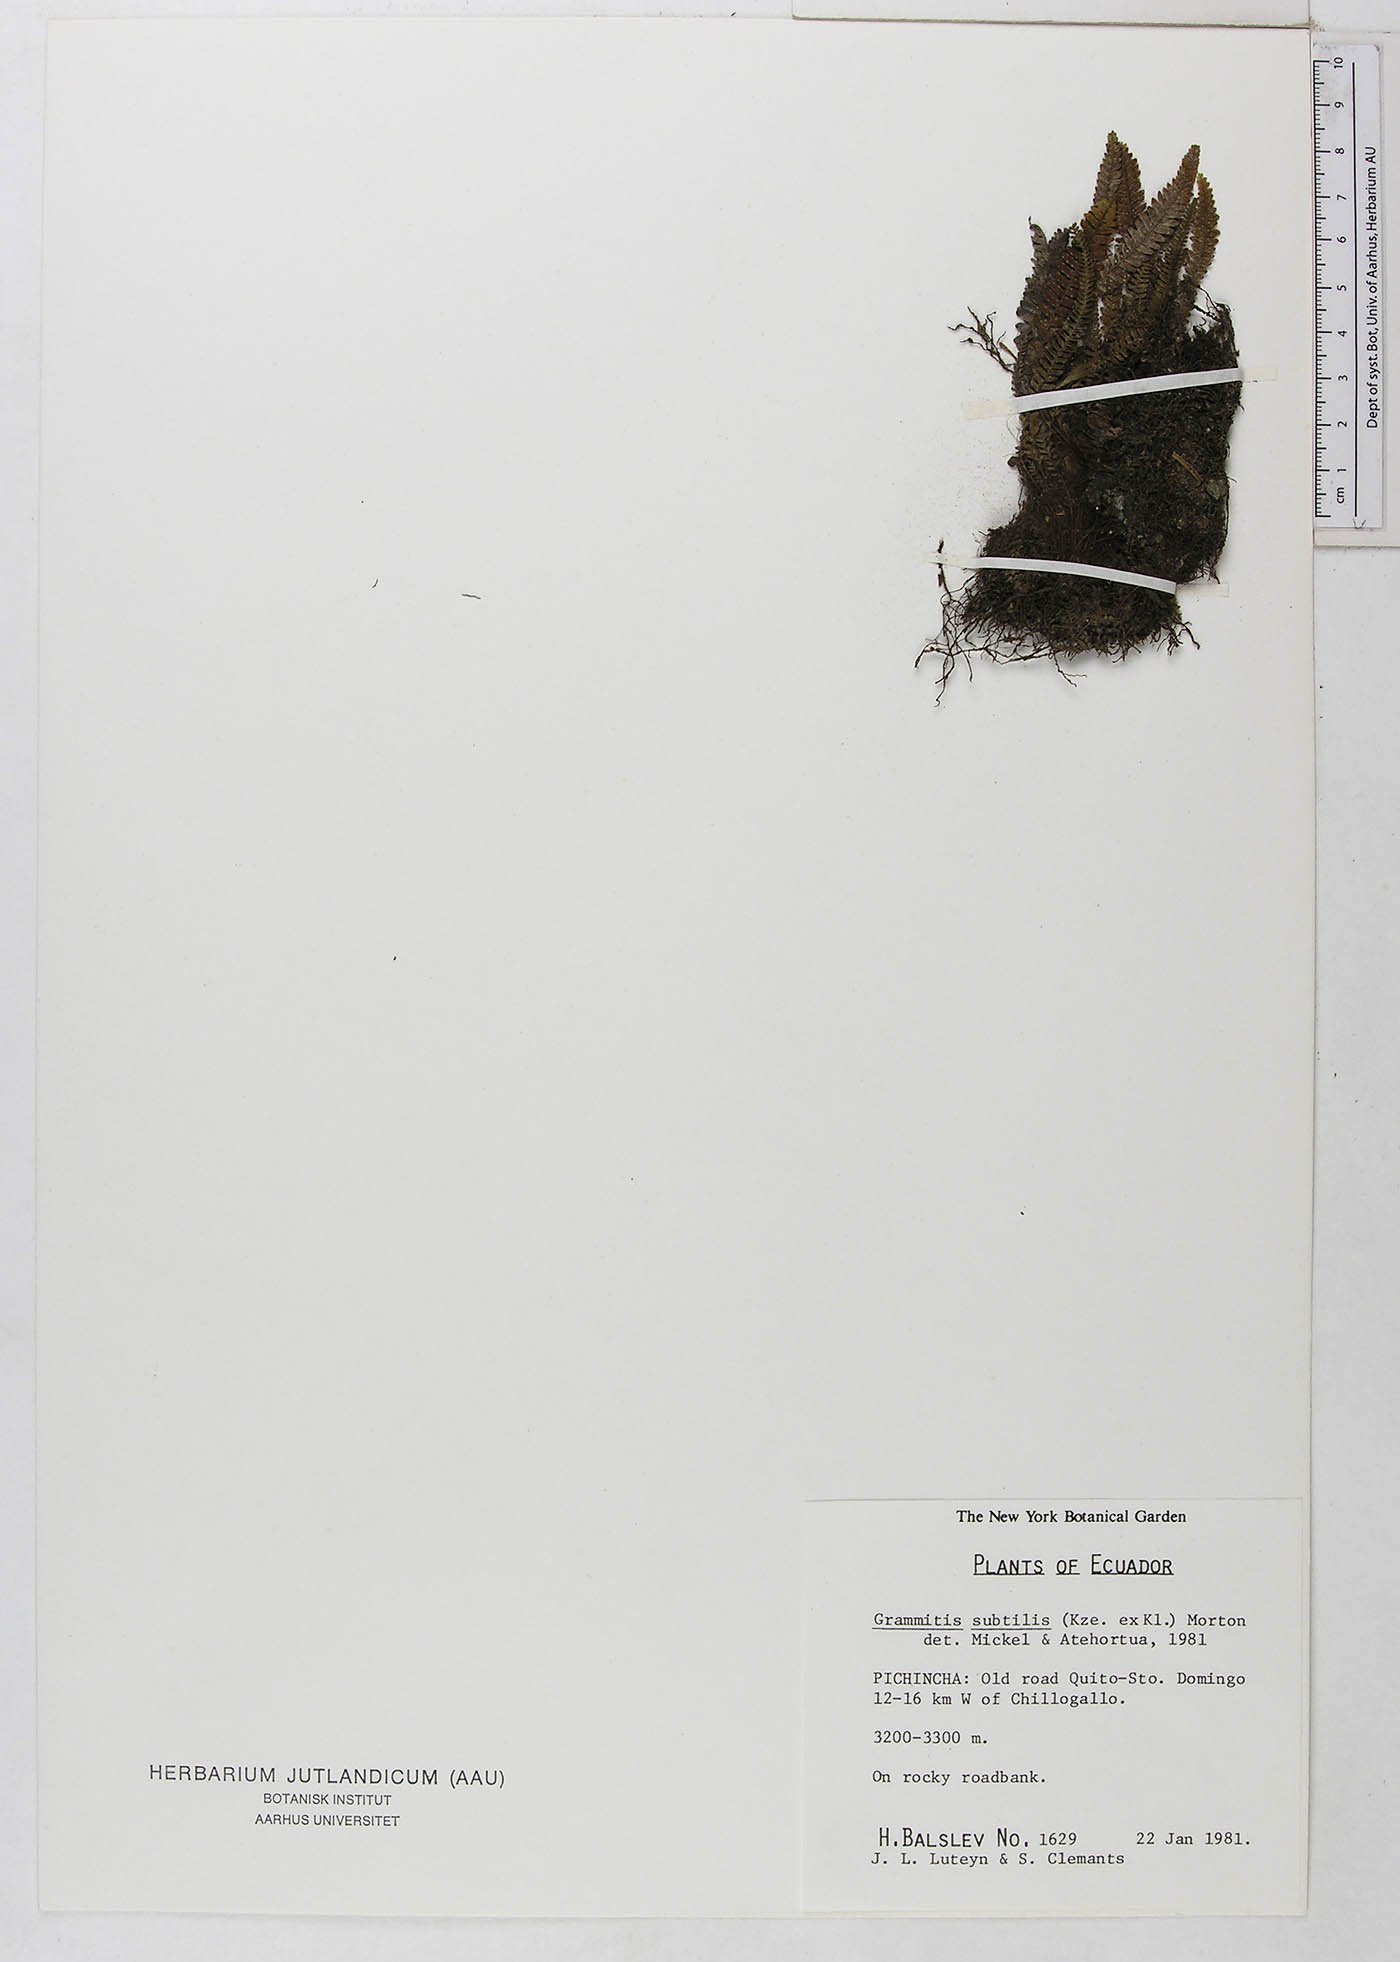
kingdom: Plantae
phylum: Tracheophyta
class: Polypodiopsida
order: Polypodiales
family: Polypodiaceae
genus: Ascogrammitis
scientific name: Ascogrammitis pichinchensis
